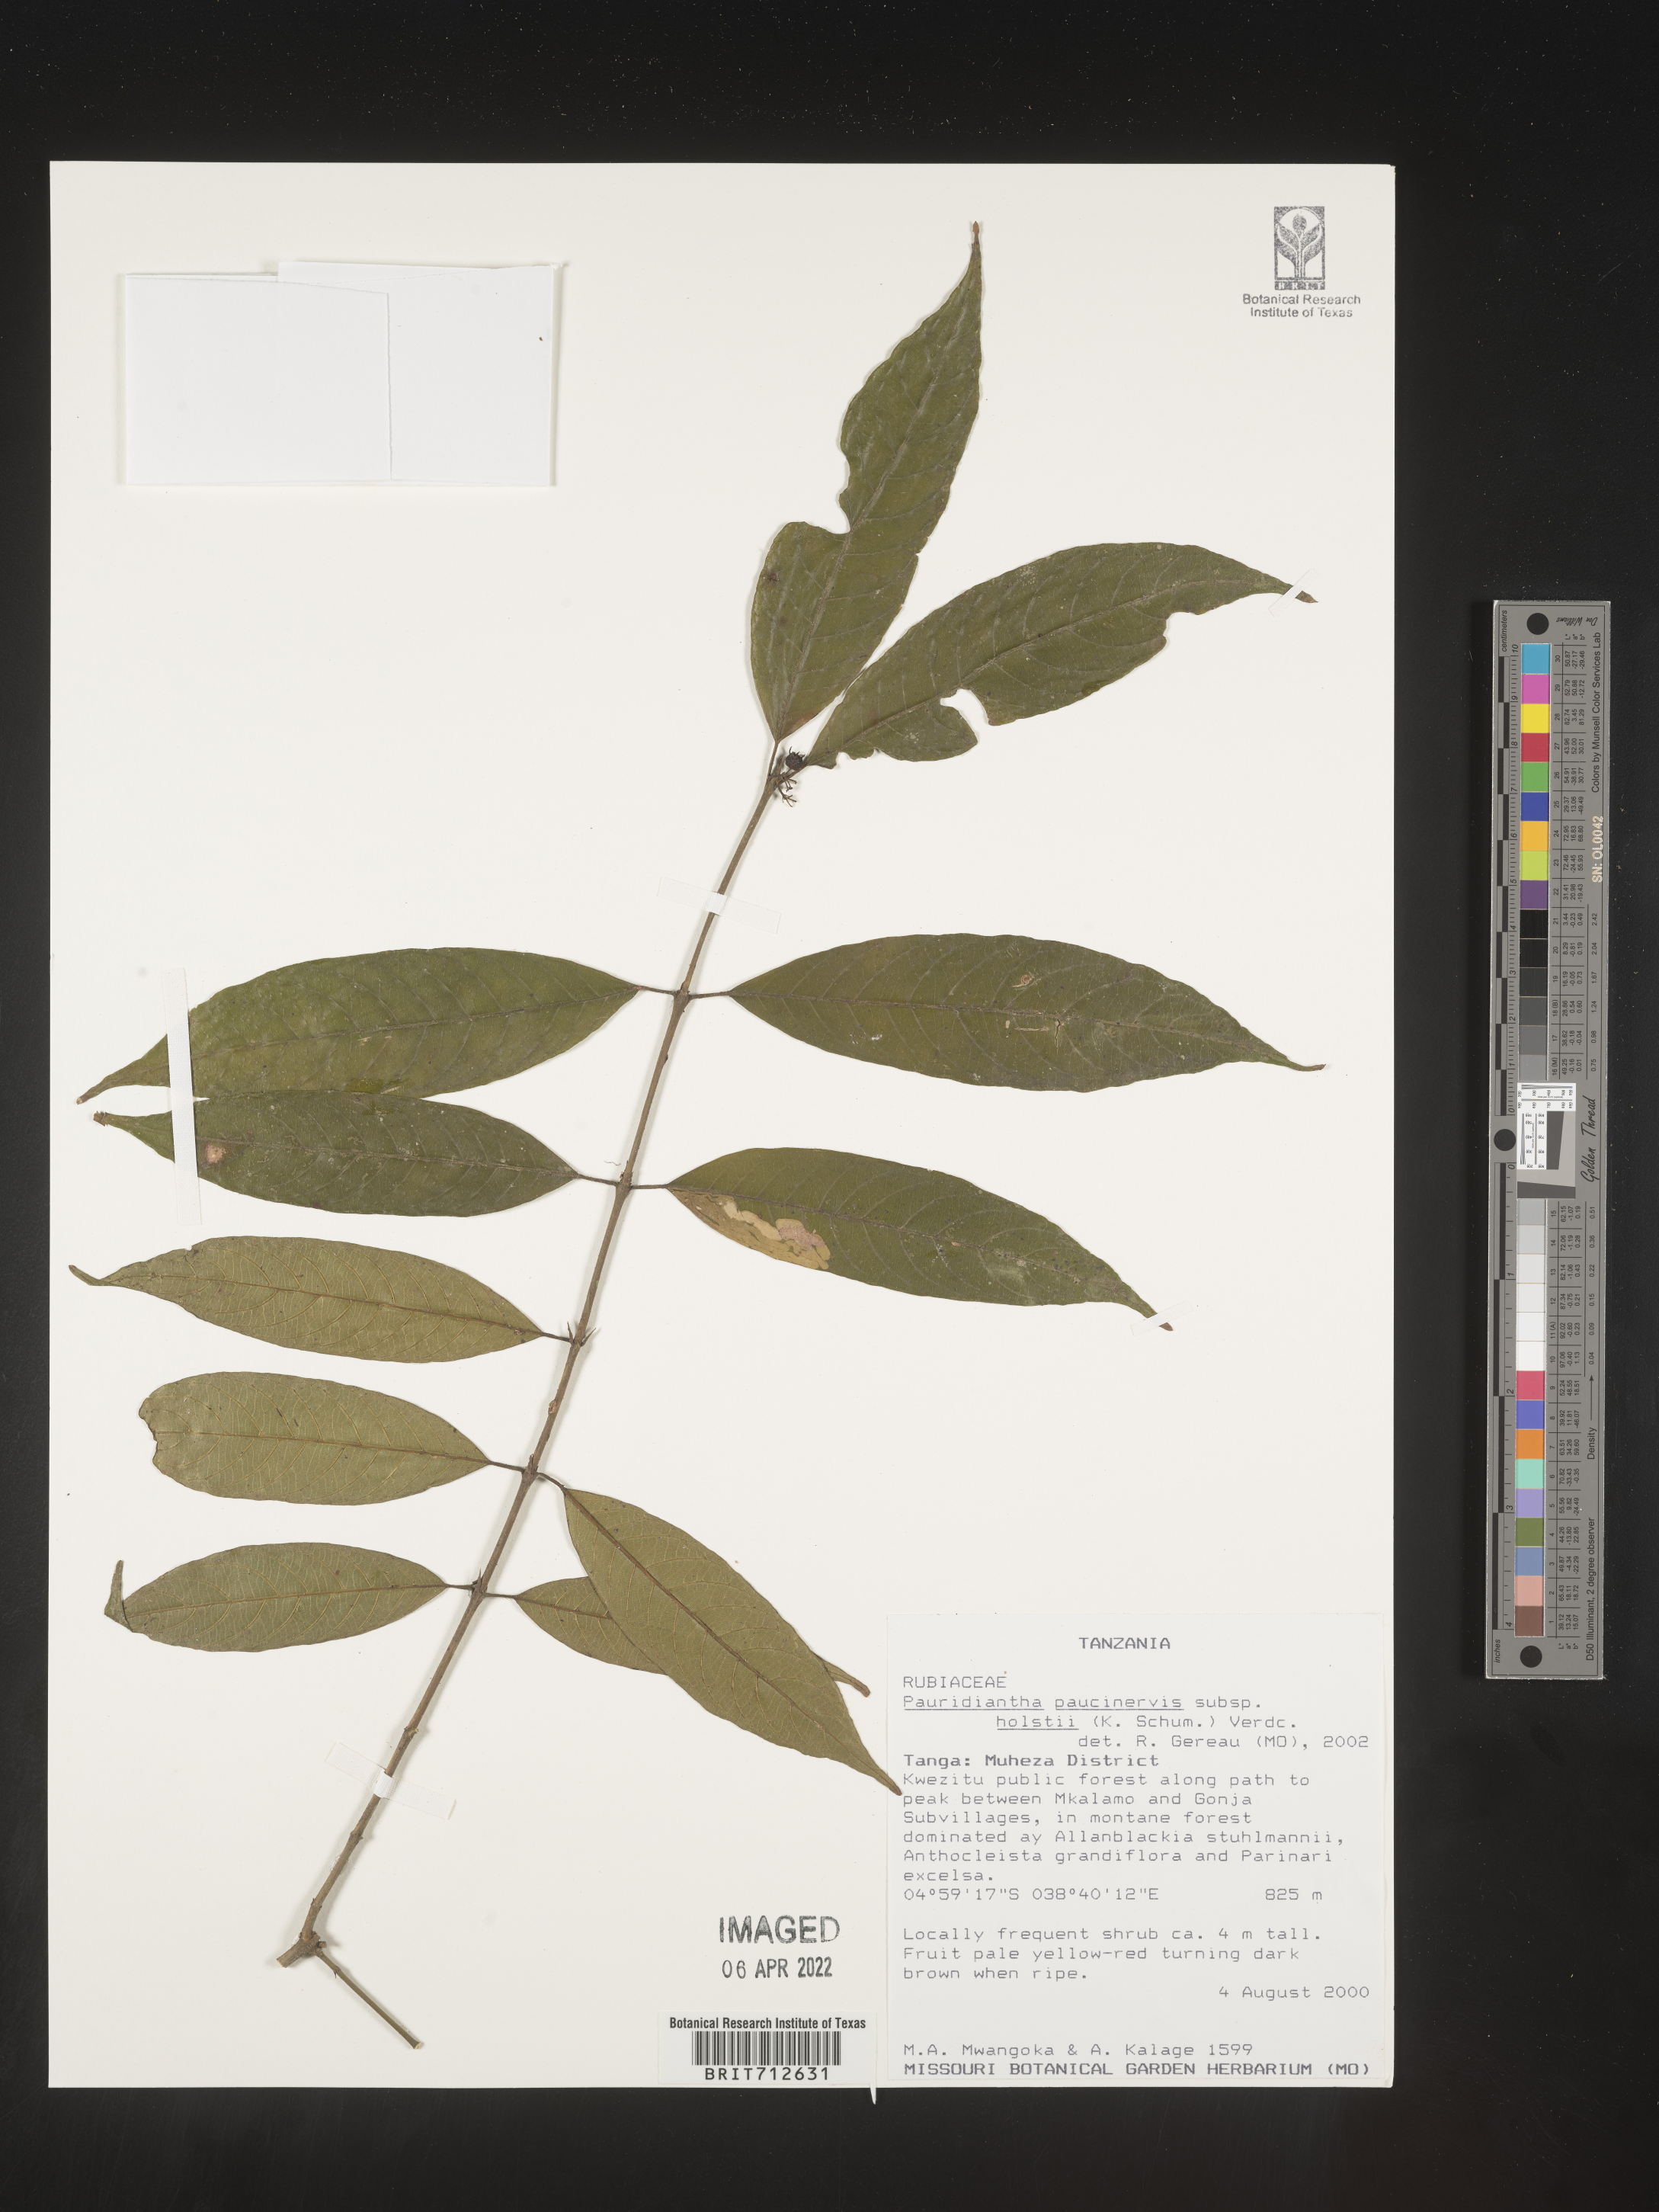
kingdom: Plantae
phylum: Tracheophyta
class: Magnoliopsida
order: Gentianales
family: Rubiaceae
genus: Pauridiantha
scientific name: Pauridiantha
